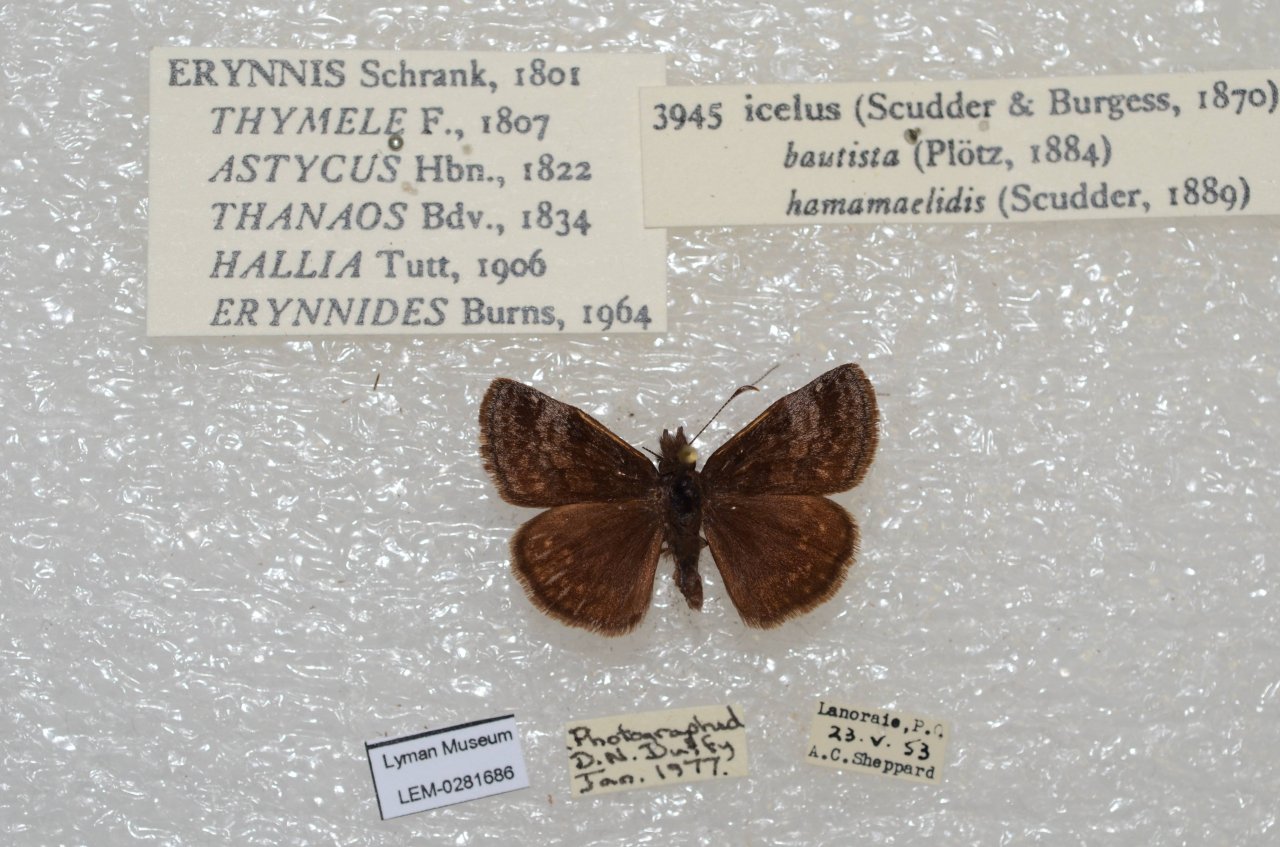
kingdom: Animalia
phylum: Arthropoda
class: Insecta
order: Lepidoptera
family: Hesperiidae
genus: Erynnis
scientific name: Erynnis icelus
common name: Dreamy Duskywing
